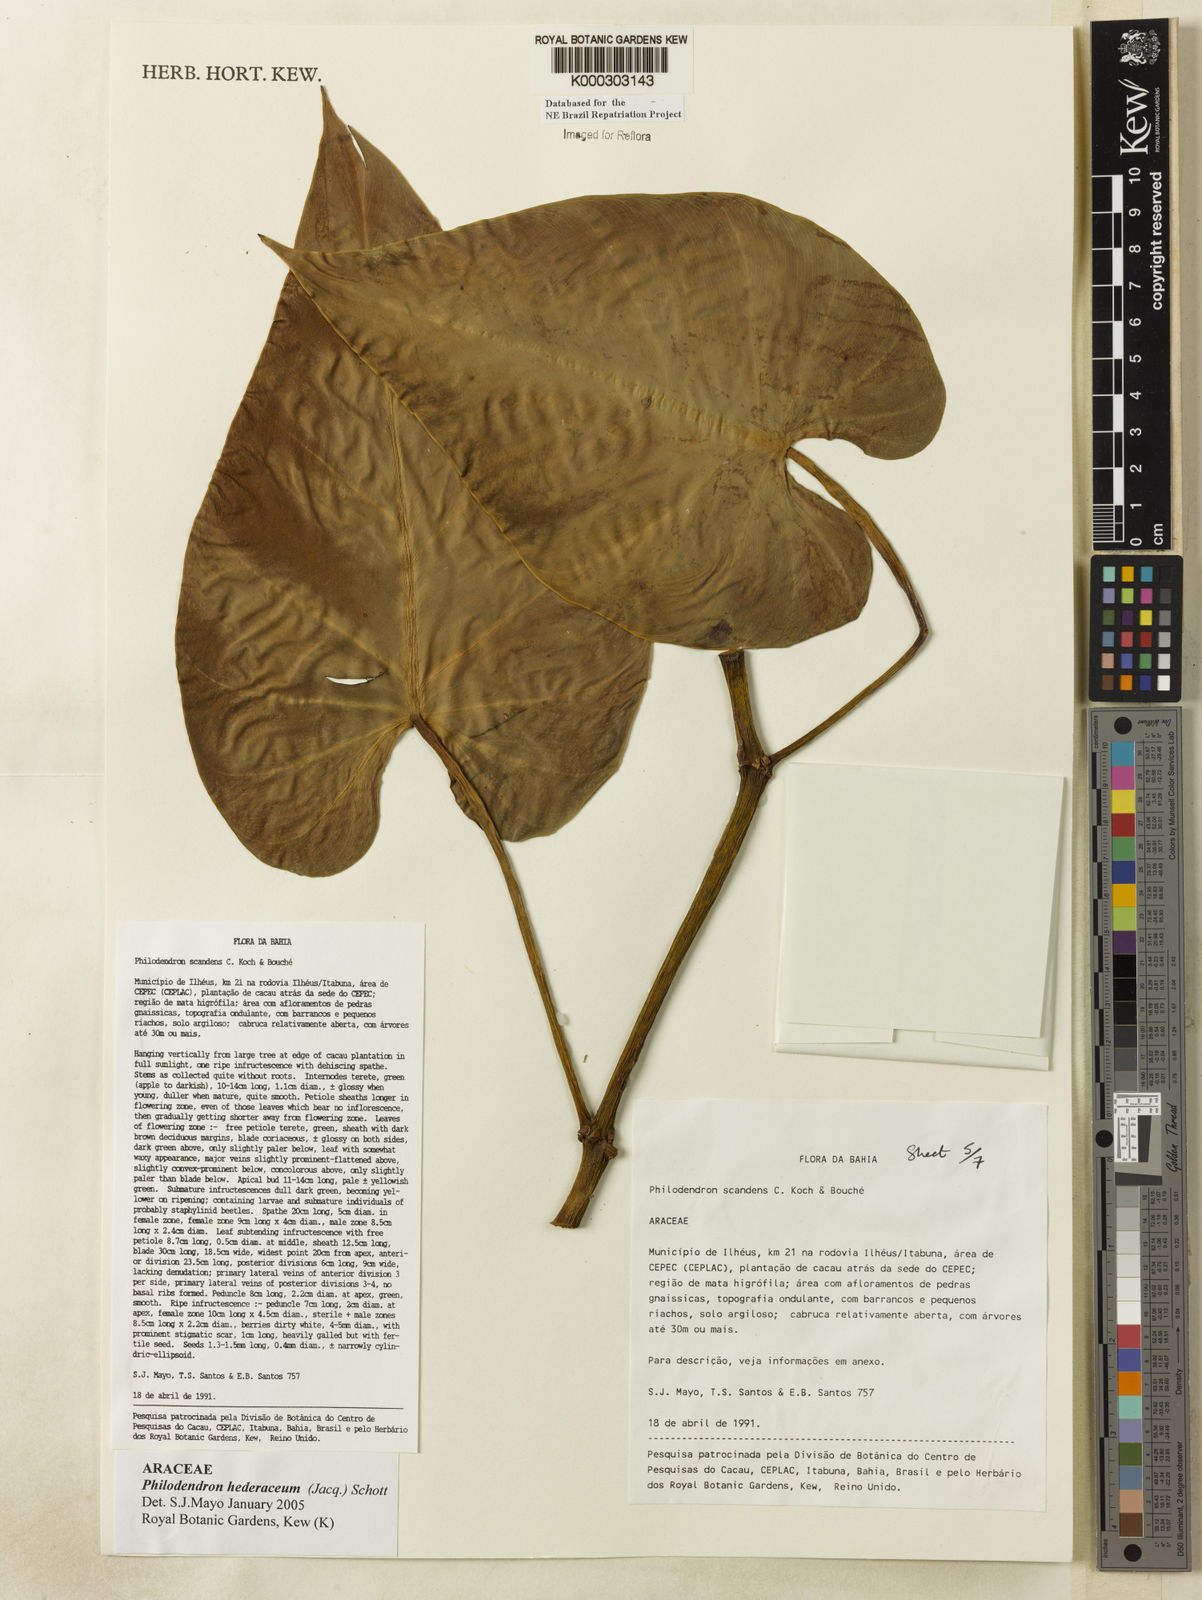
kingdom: Plantae
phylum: Tracheophyta
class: Liliopsida
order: Alismatales
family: Araceae
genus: Philodendron
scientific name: Philodendron hederaceum
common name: Vilevine
